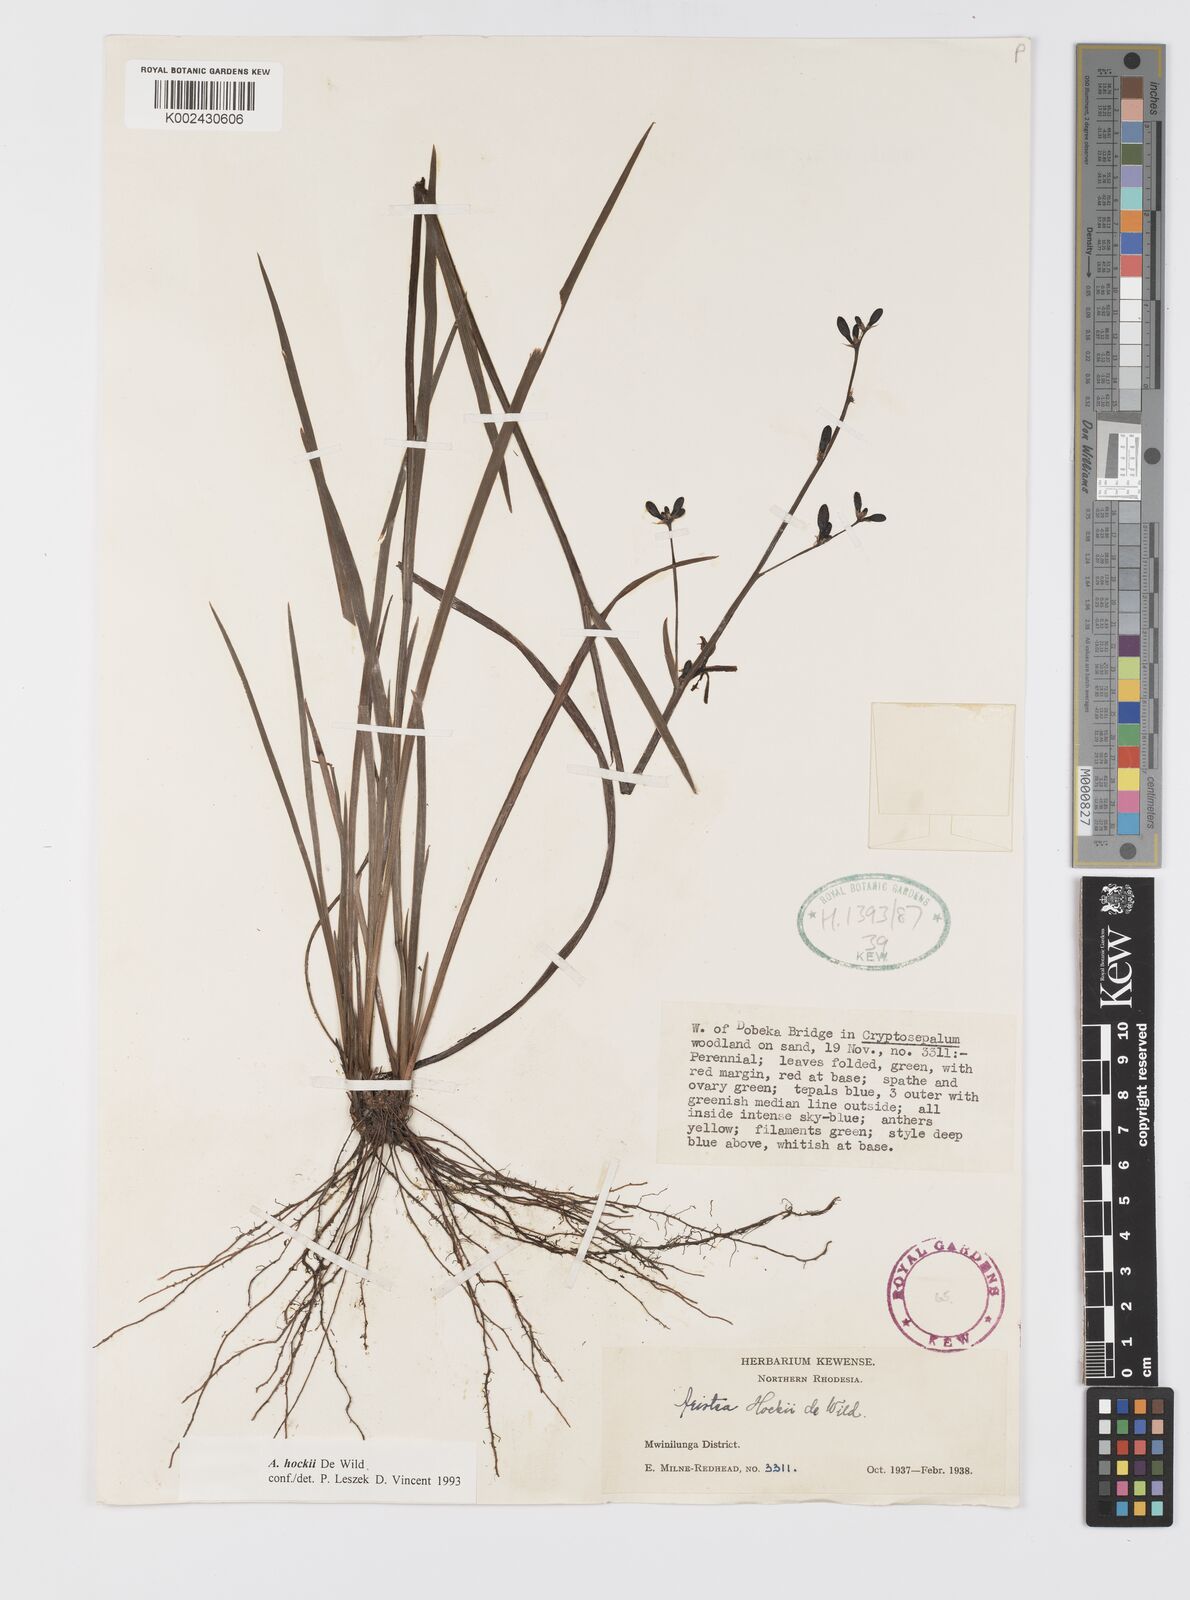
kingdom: Plantae
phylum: Tracheophyta
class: Liliopsida
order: Asparagales
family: Iridaceae
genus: Aristea
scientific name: Aristea nyikensis
